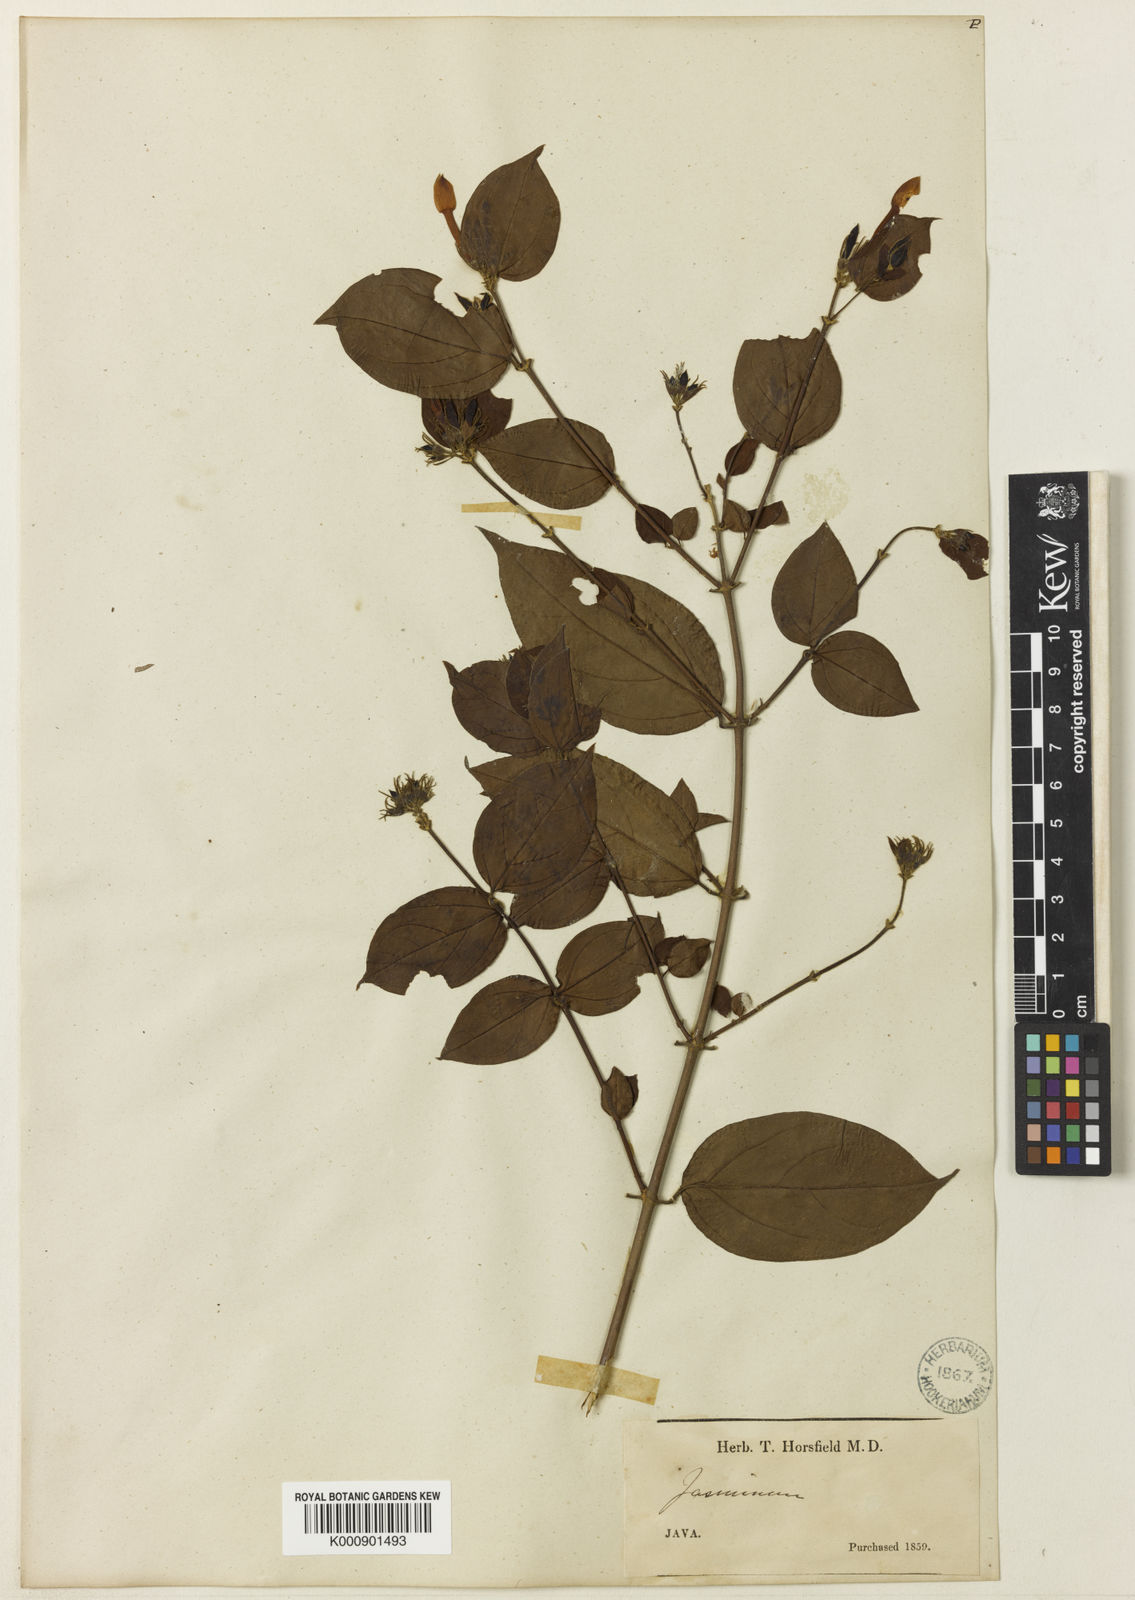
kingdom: Plantae
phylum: Tracheophyta
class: Magnoliopsida
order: Lamiales
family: Oleaceae
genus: Jasminum
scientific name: Jasminum elongatum
